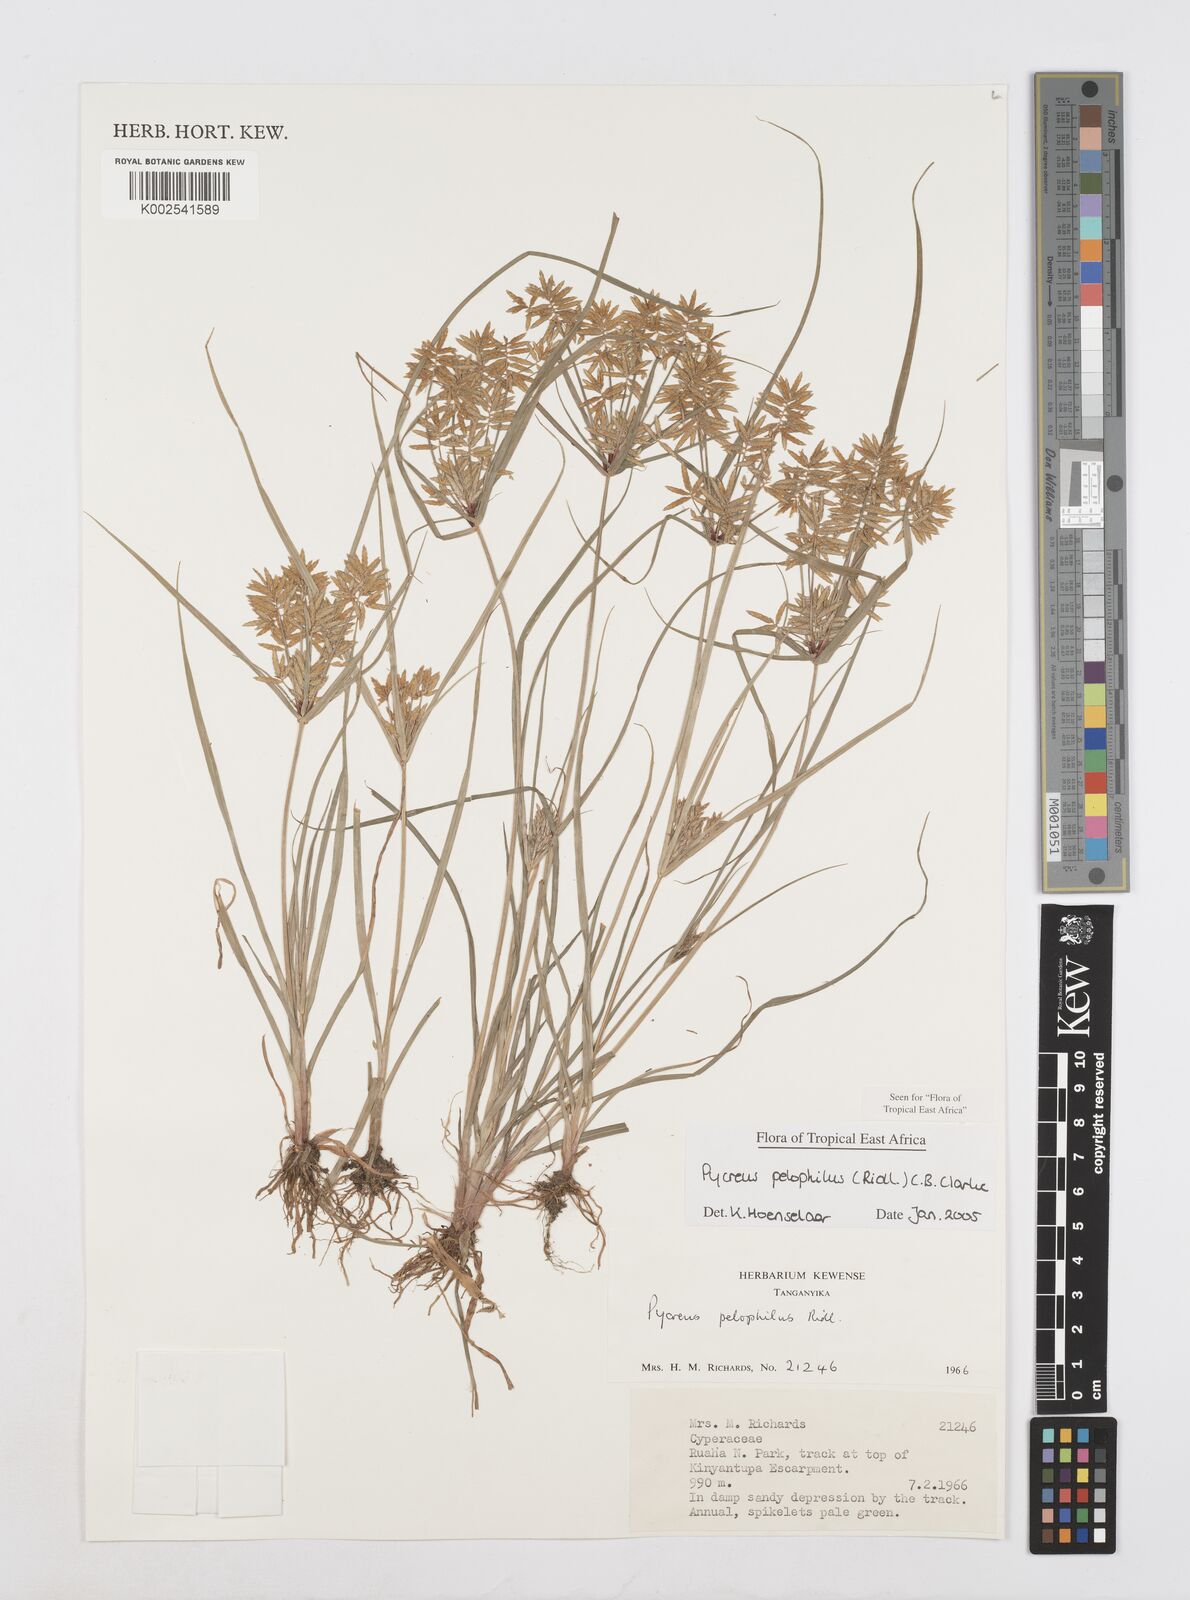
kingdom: Plantae
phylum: Tracheophyta
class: Liliopsida
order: Poales
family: Cyperaceae
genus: Cyperus
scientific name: Cyperus pelophilus
